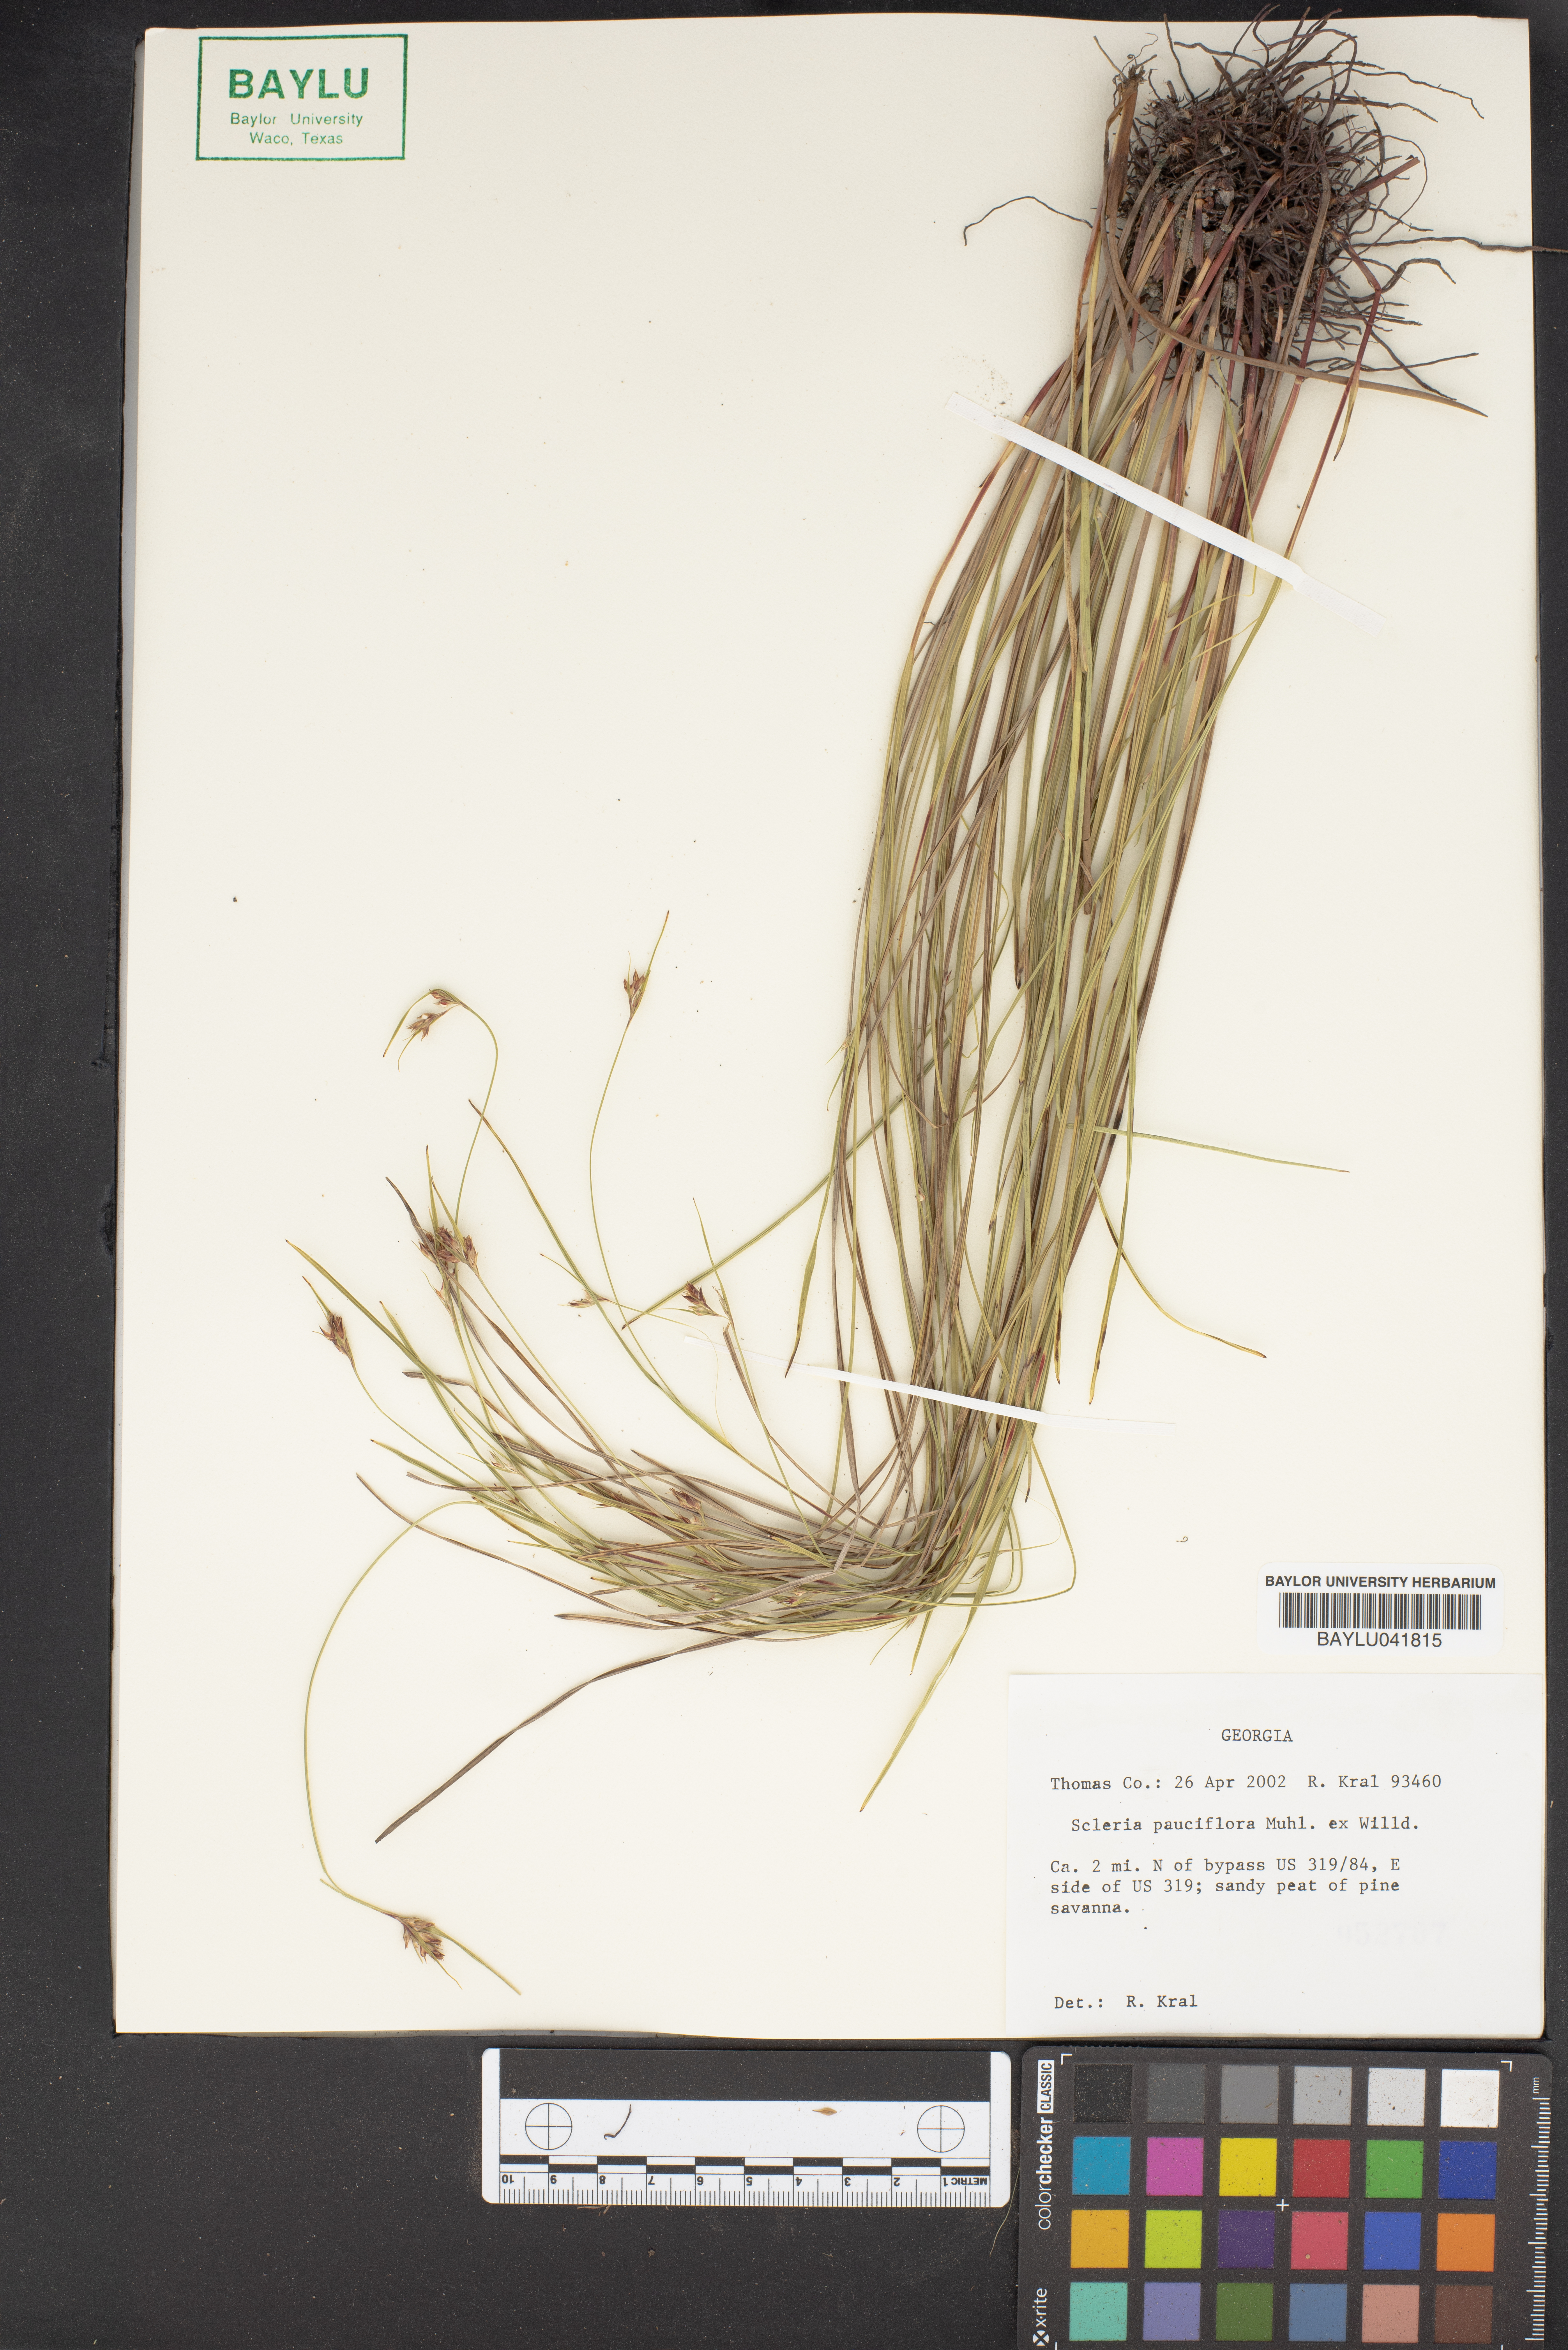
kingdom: Plantae
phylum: Tracheophyta
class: Liliopsida
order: Poales
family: Cyperaceae
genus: Scleria
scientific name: Scleria pauciflora
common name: Few-flowered nutrush
